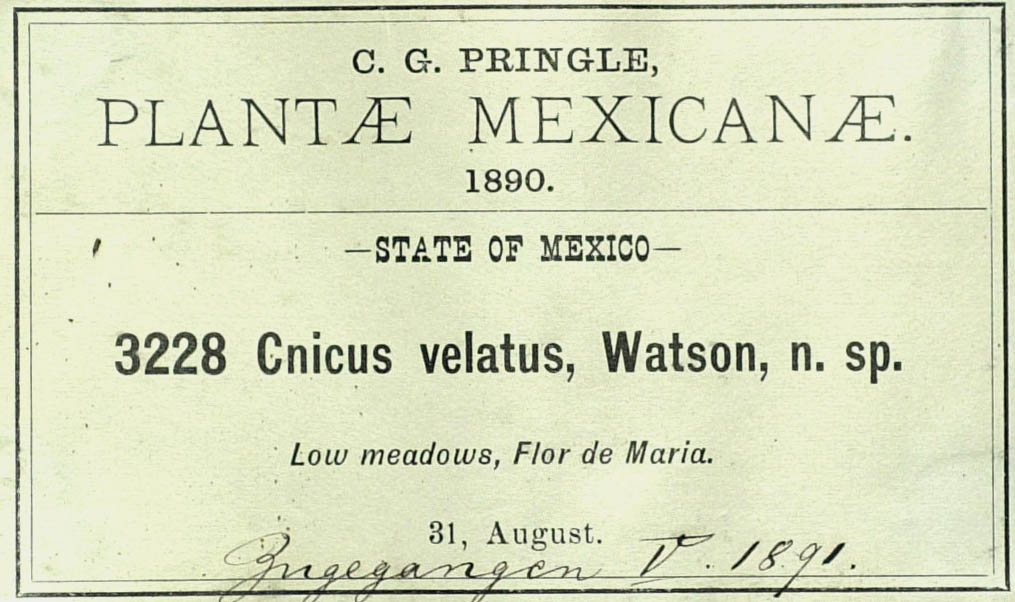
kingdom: Plantae
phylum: Tracheophyta
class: Magnoliopsida
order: Asterales
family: Asteraceae
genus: Cirsium
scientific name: Cirsium velatum
